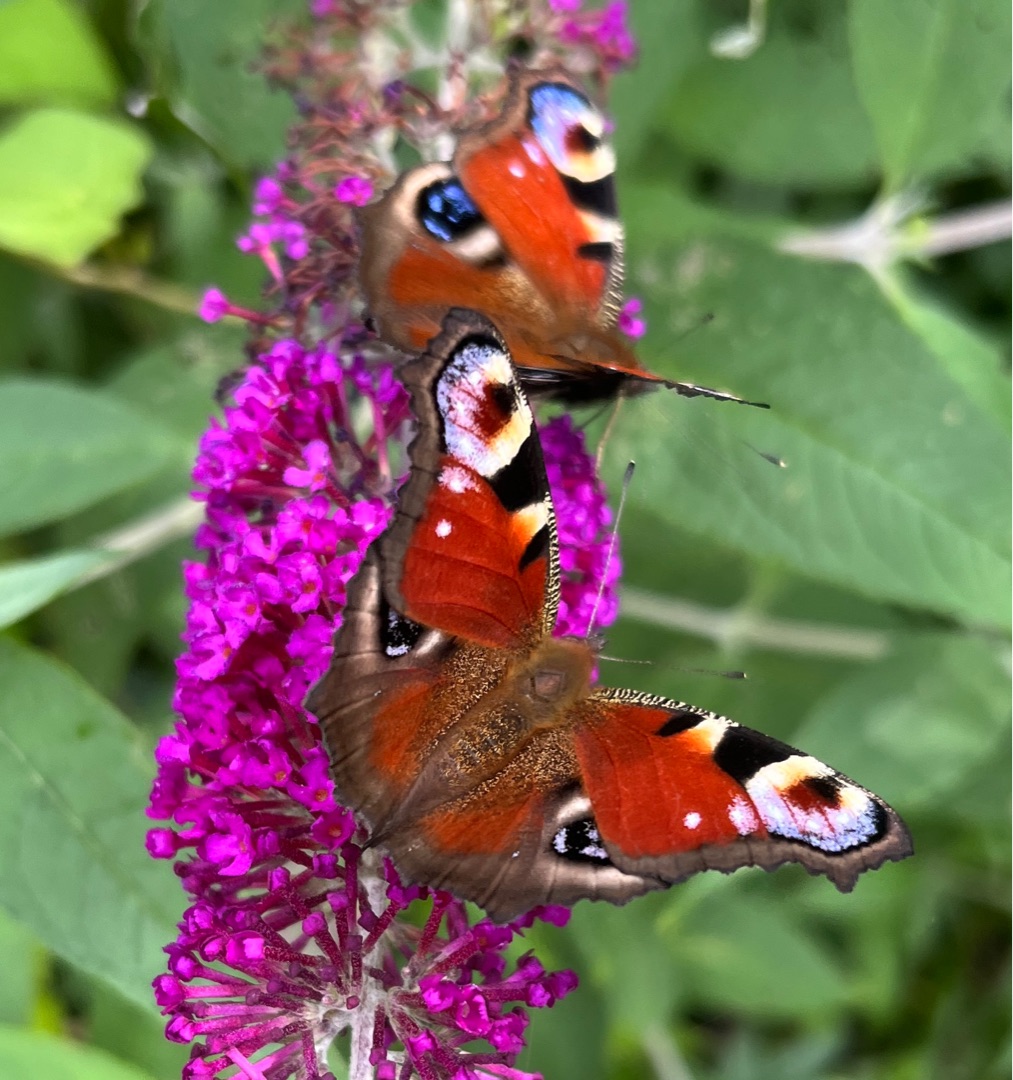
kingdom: Animalia
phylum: Arthropoda
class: Insecta
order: Lepidoptera
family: Nymphalidae
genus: Aglais
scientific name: Aglais io
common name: Dagpåfugleøje
